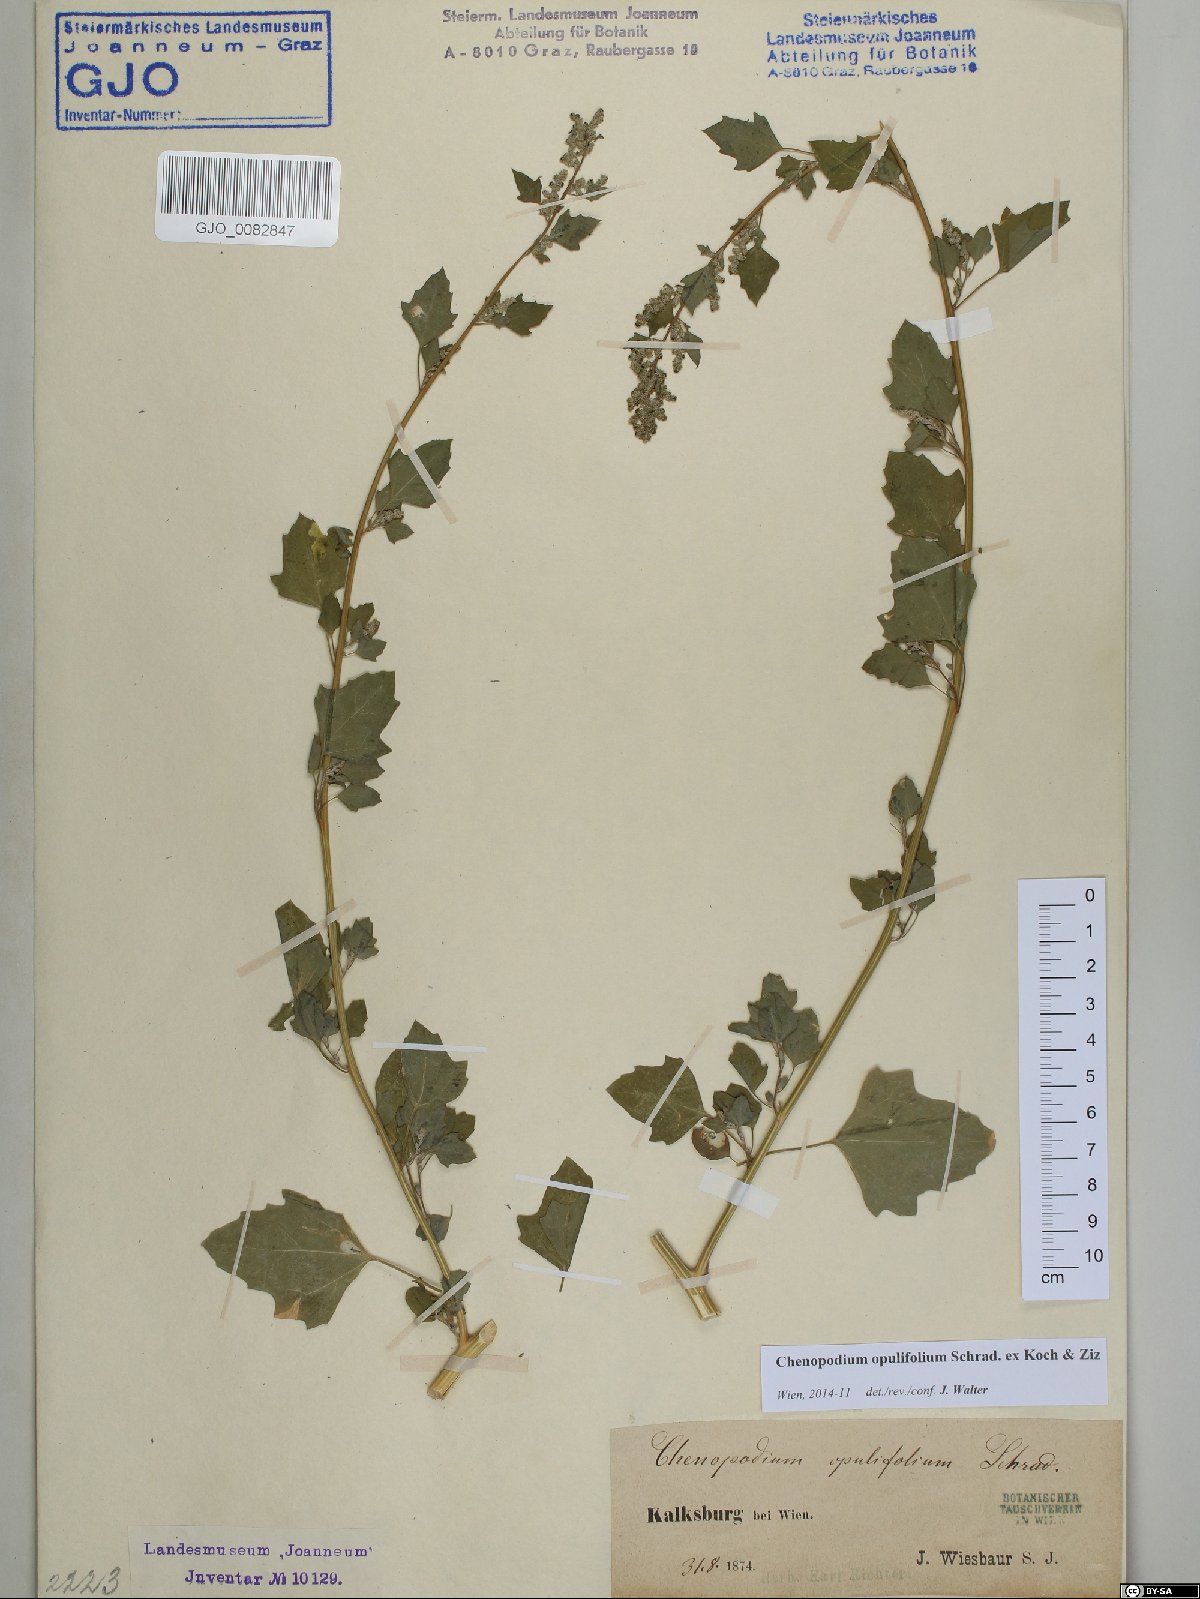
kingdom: Plantae
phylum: Tracheophyta
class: Magnoliopsida
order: Caryophyllales
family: Amaranthaceae
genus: Chenopodium
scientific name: Chenopodium opulifolium
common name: Grey goosefoot
